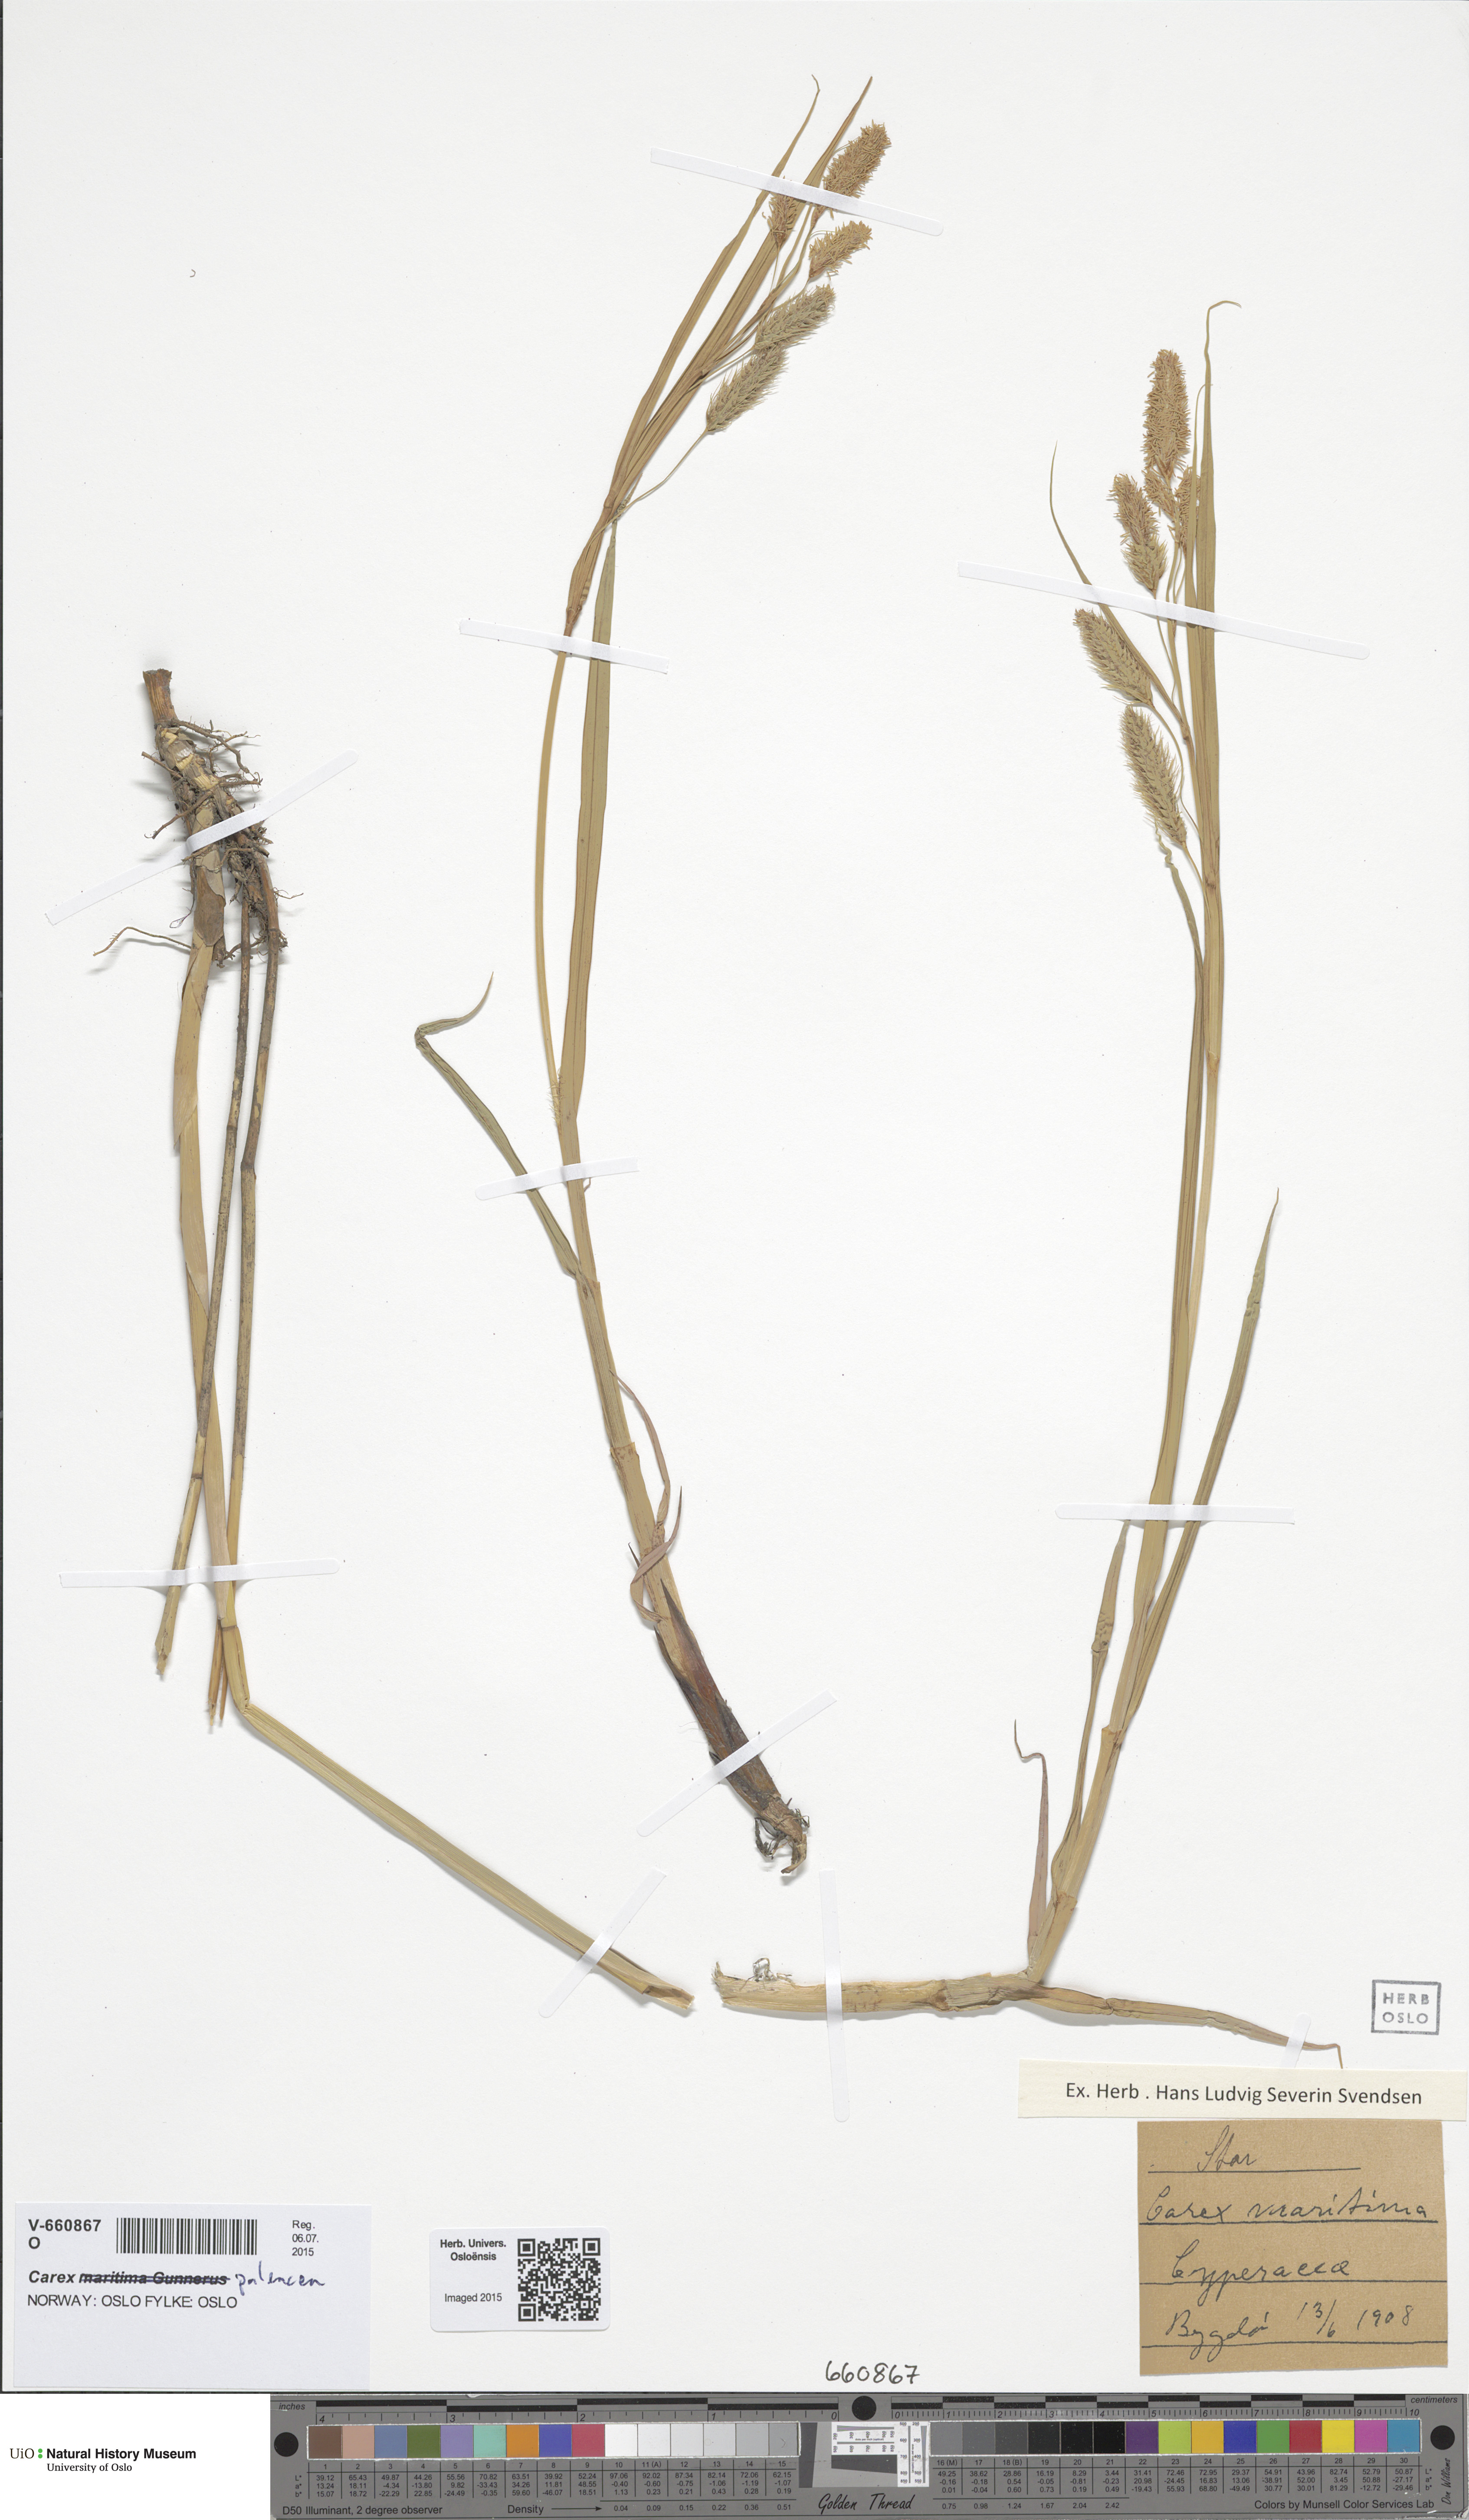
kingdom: Plantae
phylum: Tracheophyta
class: Liliopsida
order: Poales
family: Cyperaceae
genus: Carex
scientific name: Carex paleacea
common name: Chaffy sedge
